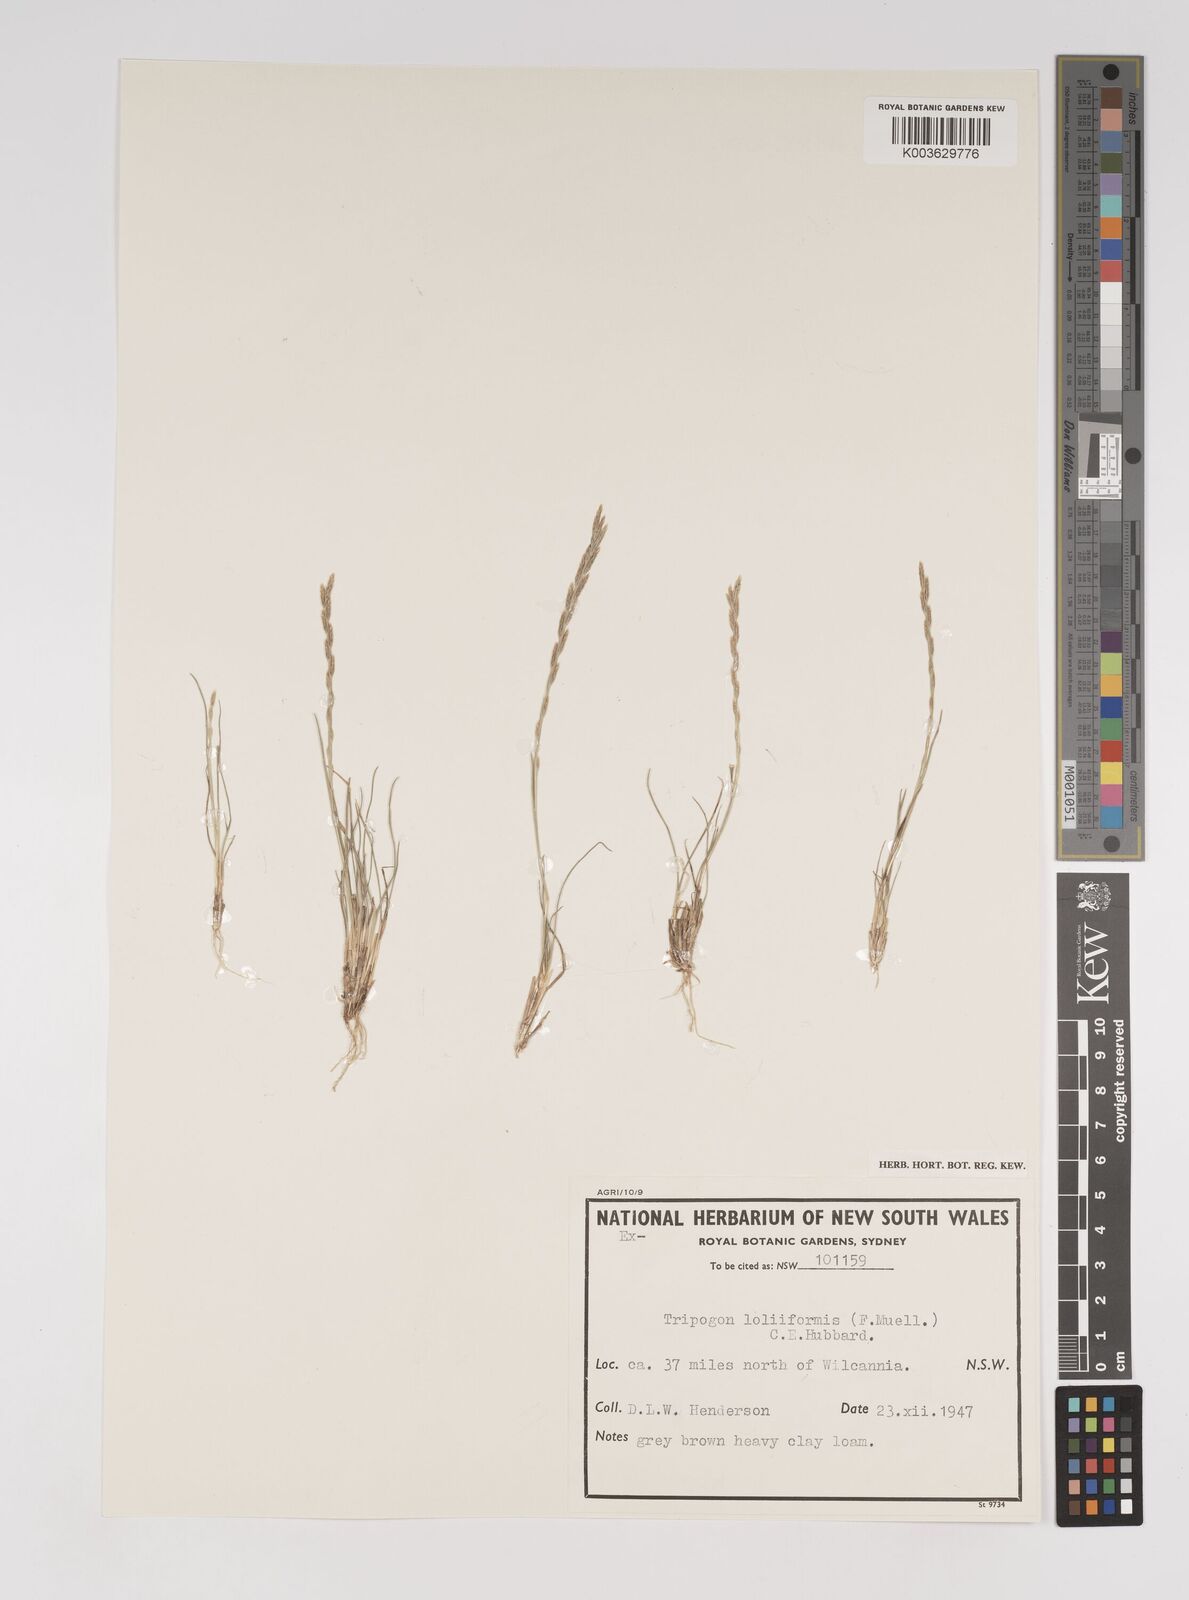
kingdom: Plantae
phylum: Tracheophyta
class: Liliopsida
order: Poales
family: Poaceae
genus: Tripogonella
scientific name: Tripogonella loliiformis
